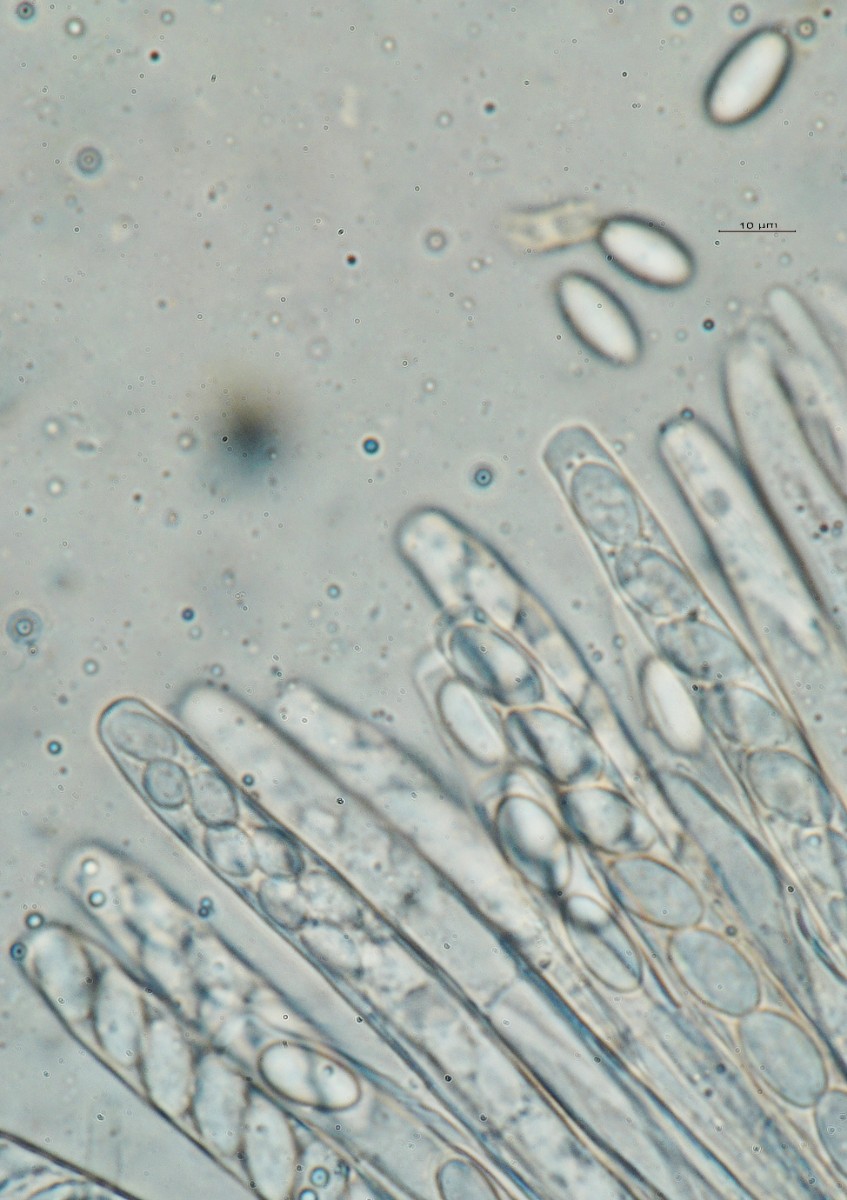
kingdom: Fungi
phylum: Ascomycota
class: Leotiomycetes
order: Helotiales
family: Sclerotiniaceae
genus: Myriosclerotinia
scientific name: Myriosclerotinia sulcatula
